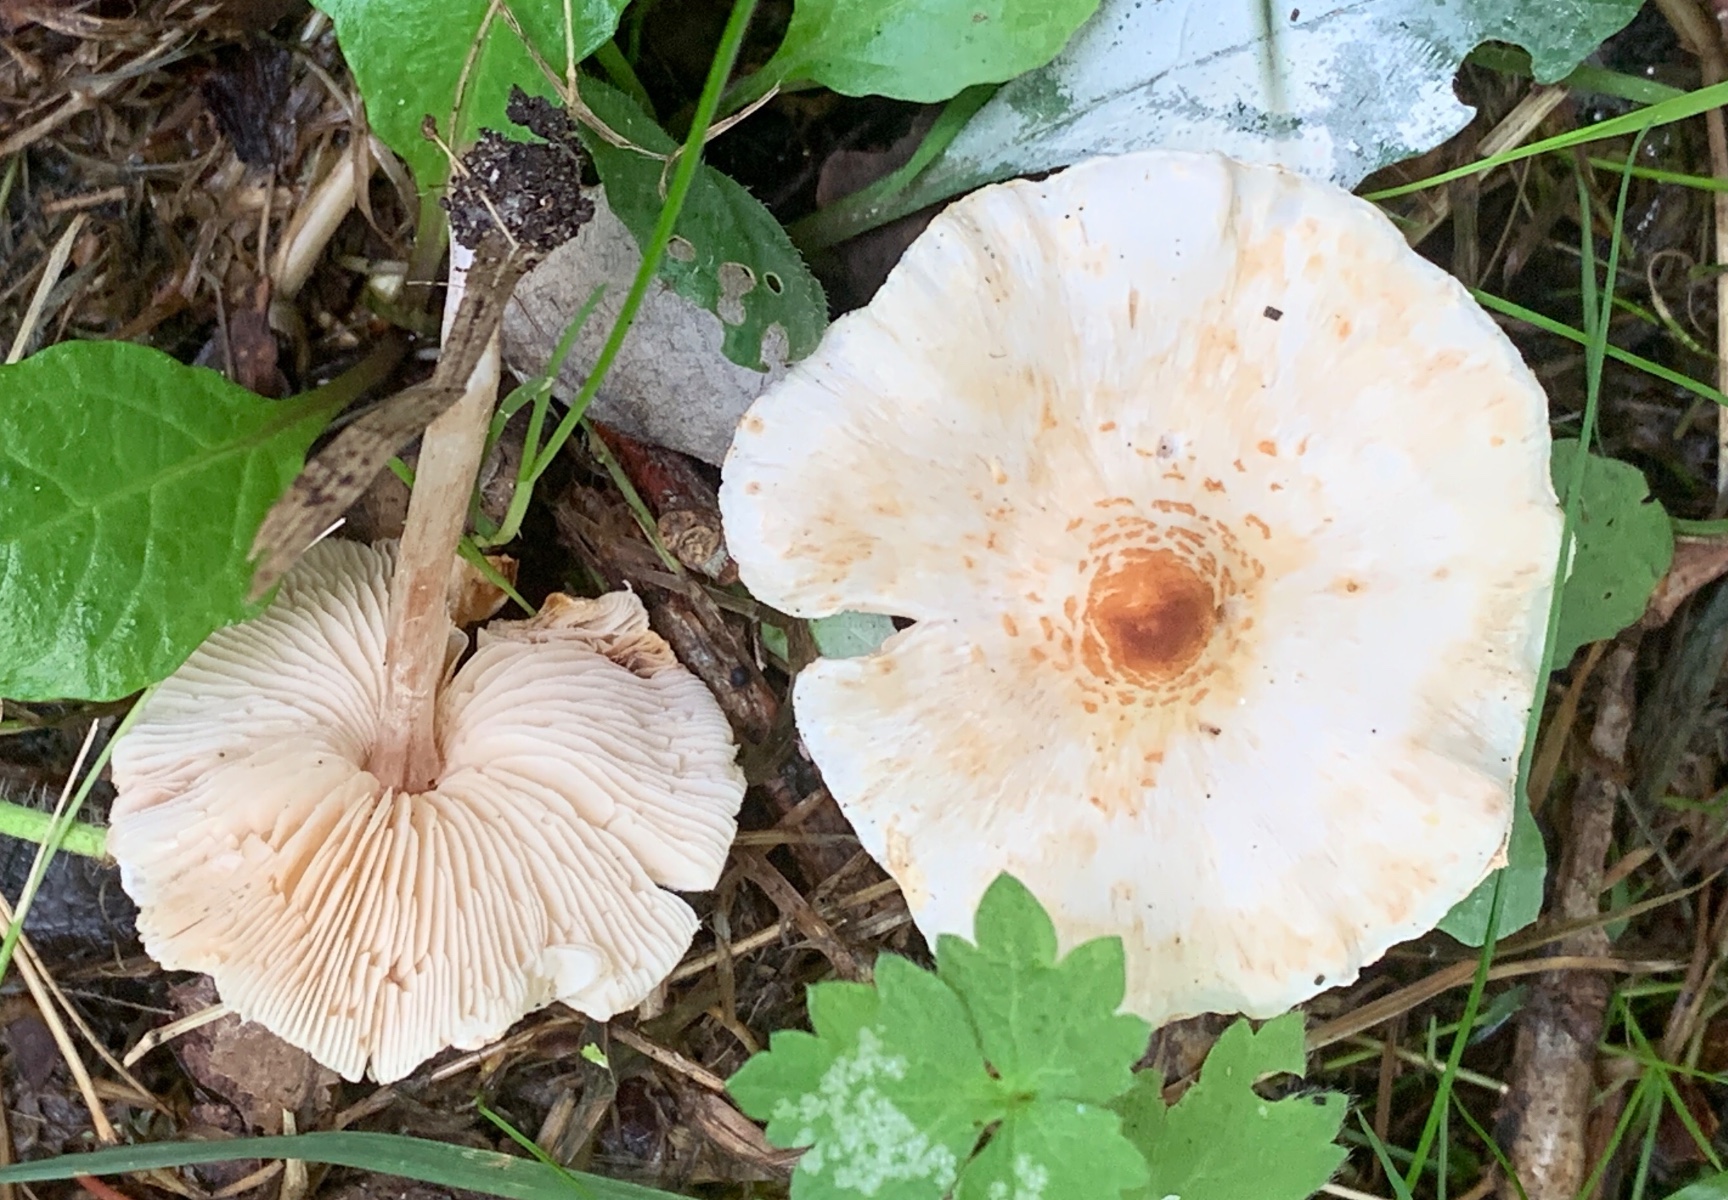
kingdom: Fungi
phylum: Basidiomycota
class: Agaricomycetes
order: Agaricales
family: Agaricaceae
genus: Lepiota
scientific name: Lepiota cristata
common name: stinkende parasolhat
